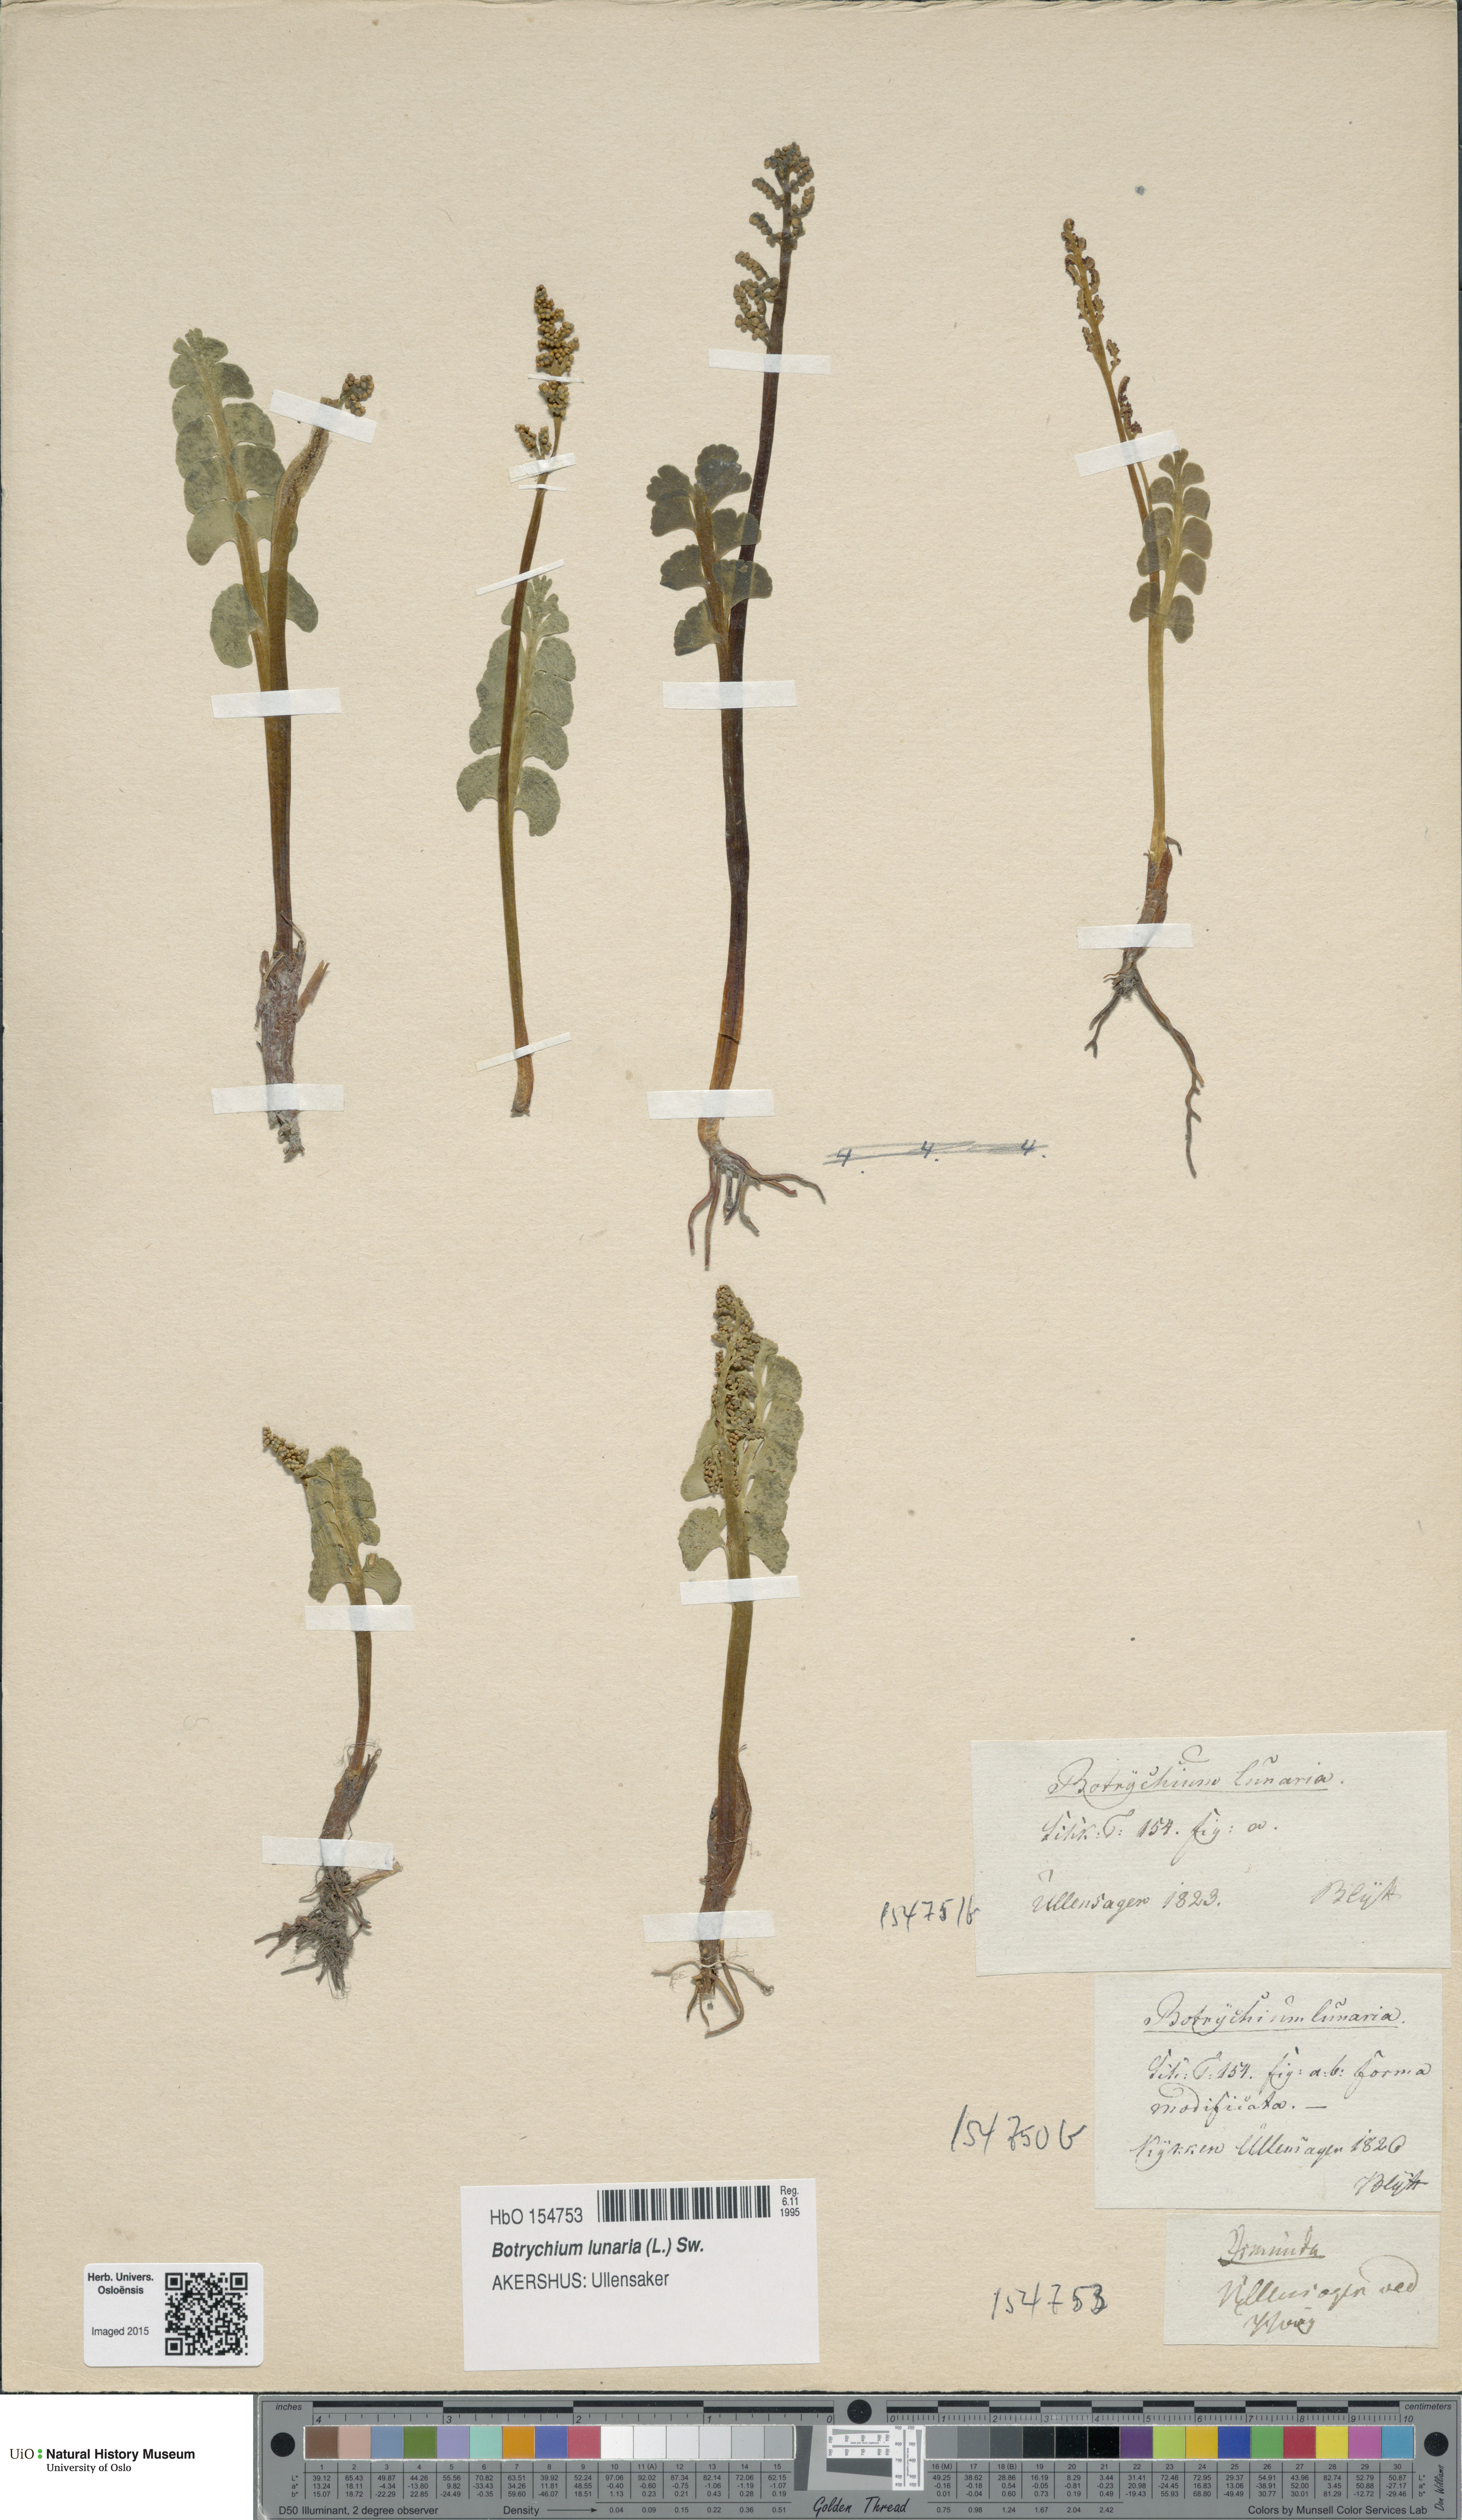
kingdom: Plantae
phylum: Tracheophyta
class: Polypodiopsida
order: Ophioglossales
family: Ophioglossaceae
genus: Botrychium
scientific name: Botrychium lunaria
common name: Moonwort
